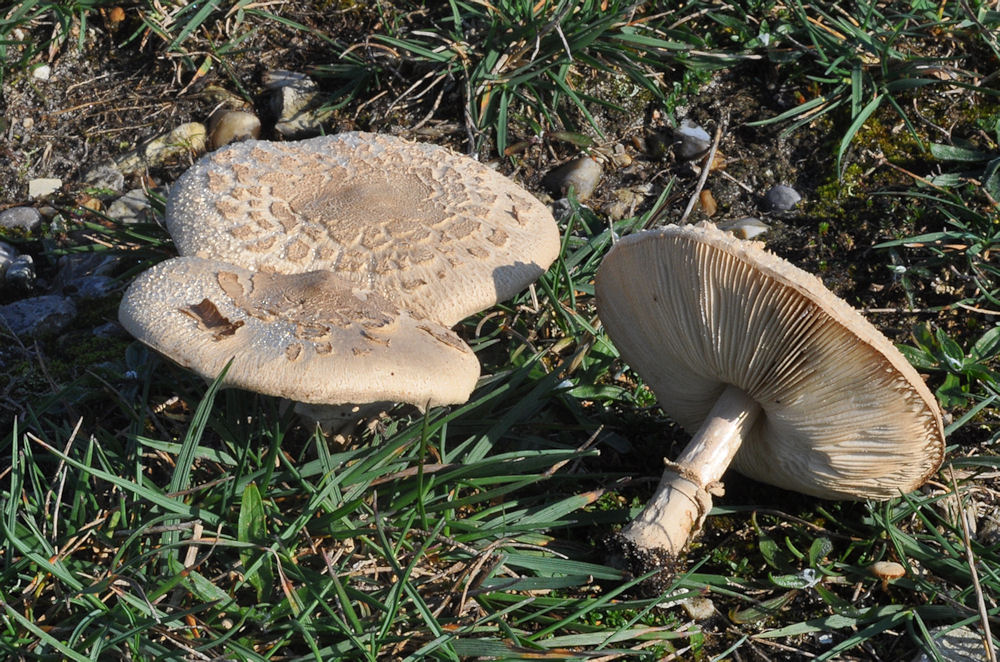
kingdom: Fungi
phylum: Basidiomycota
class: Agaricomycetes
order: Agaricales
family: Agaricaceae
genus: Macrolepiota
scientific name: Macrolepiota mastoidea
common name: puklet kæmpeparasolhat
